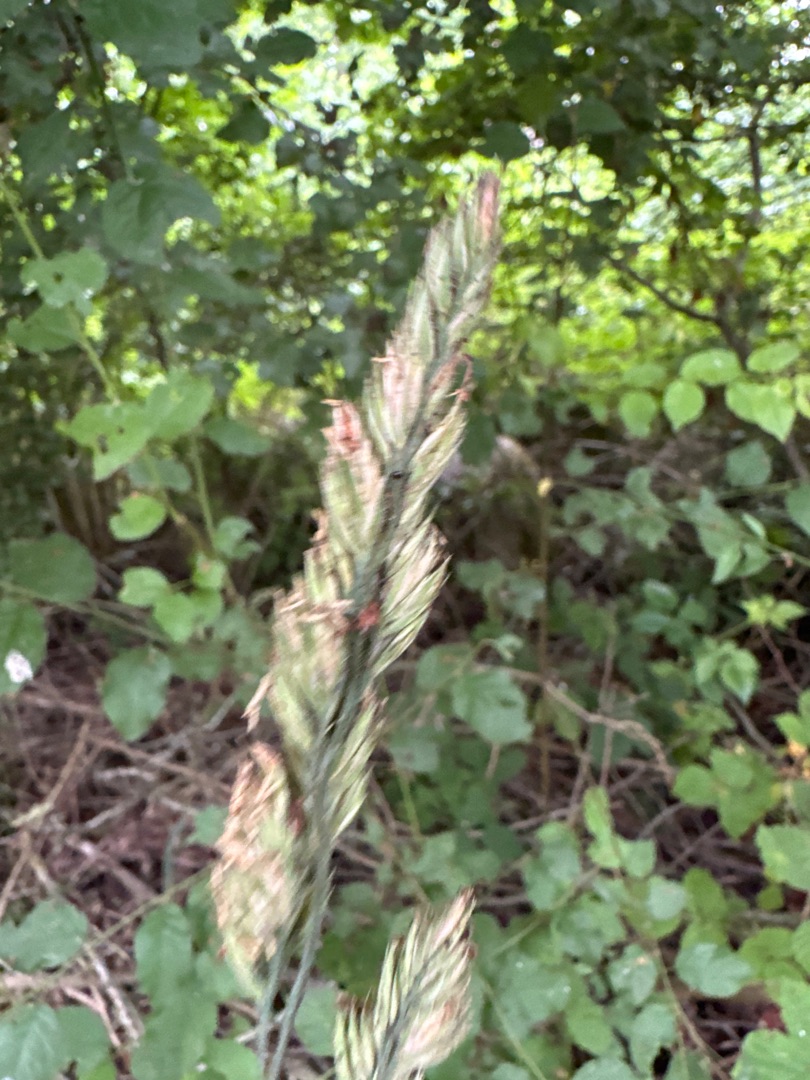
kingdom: Plantae
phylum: Tracheophyta
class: Liliopsida
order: Poales
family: Poaceae
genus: Dactylis
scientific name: Dactylis glomerata
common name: Almindelig hundegræs
